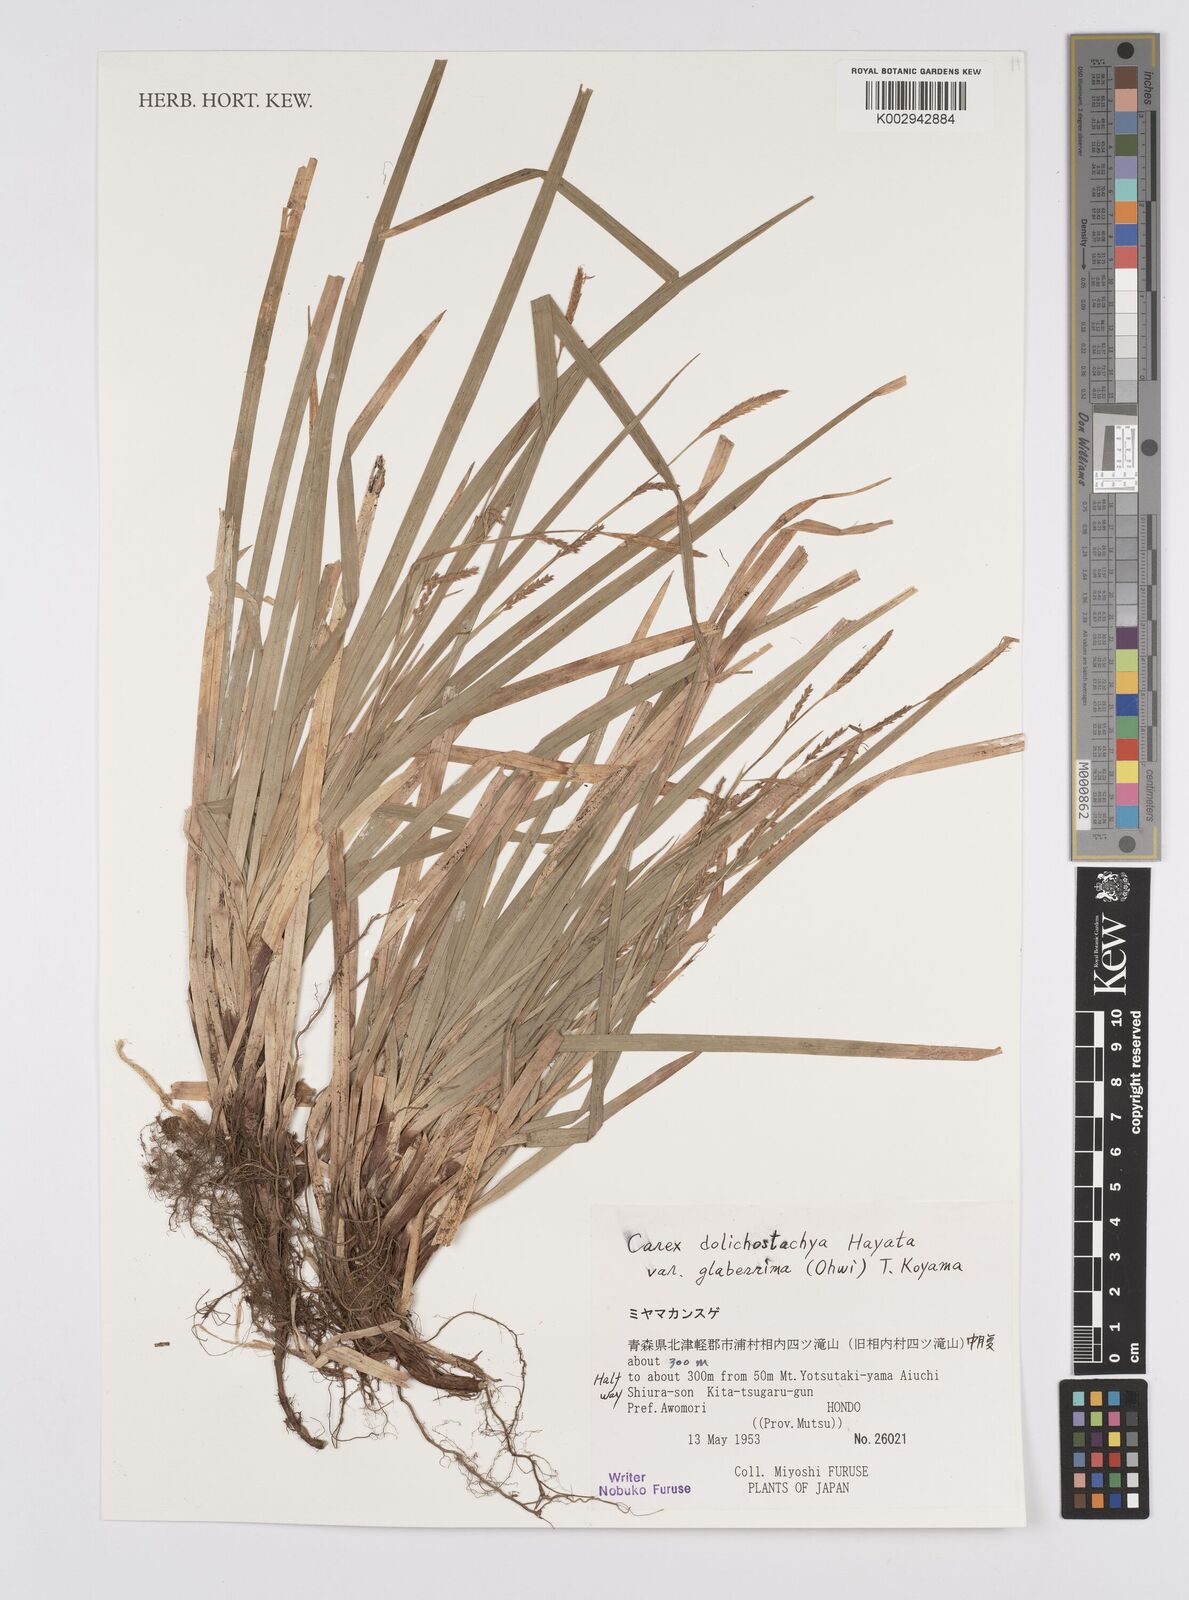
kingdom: Plantae
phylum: Tracheophyta
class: Liliopsida
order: Poales
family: Cyperaceae
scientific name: Cyperaceae
